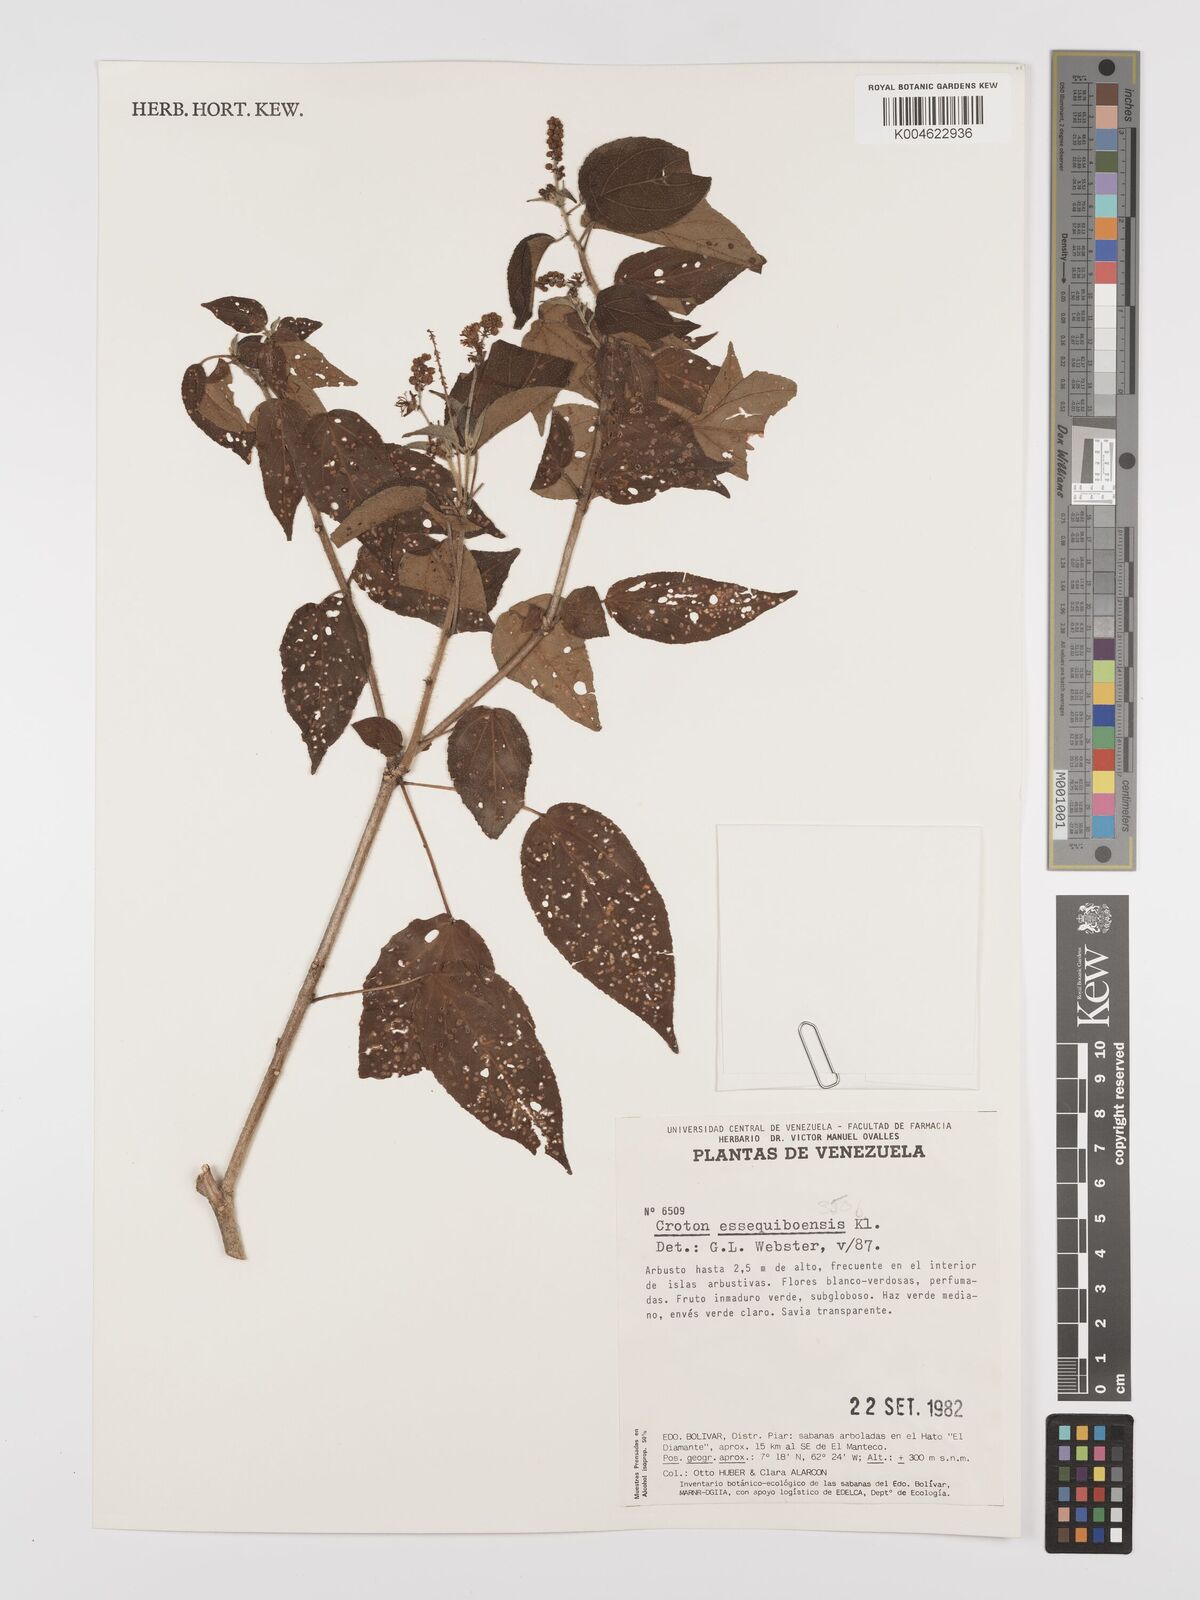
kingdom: Plantae
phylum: Tracheophyta
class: Magnoliopsida
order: Malpighiales
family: Euphorbiaceae
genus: Croton
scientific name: Croton essequiboensis
